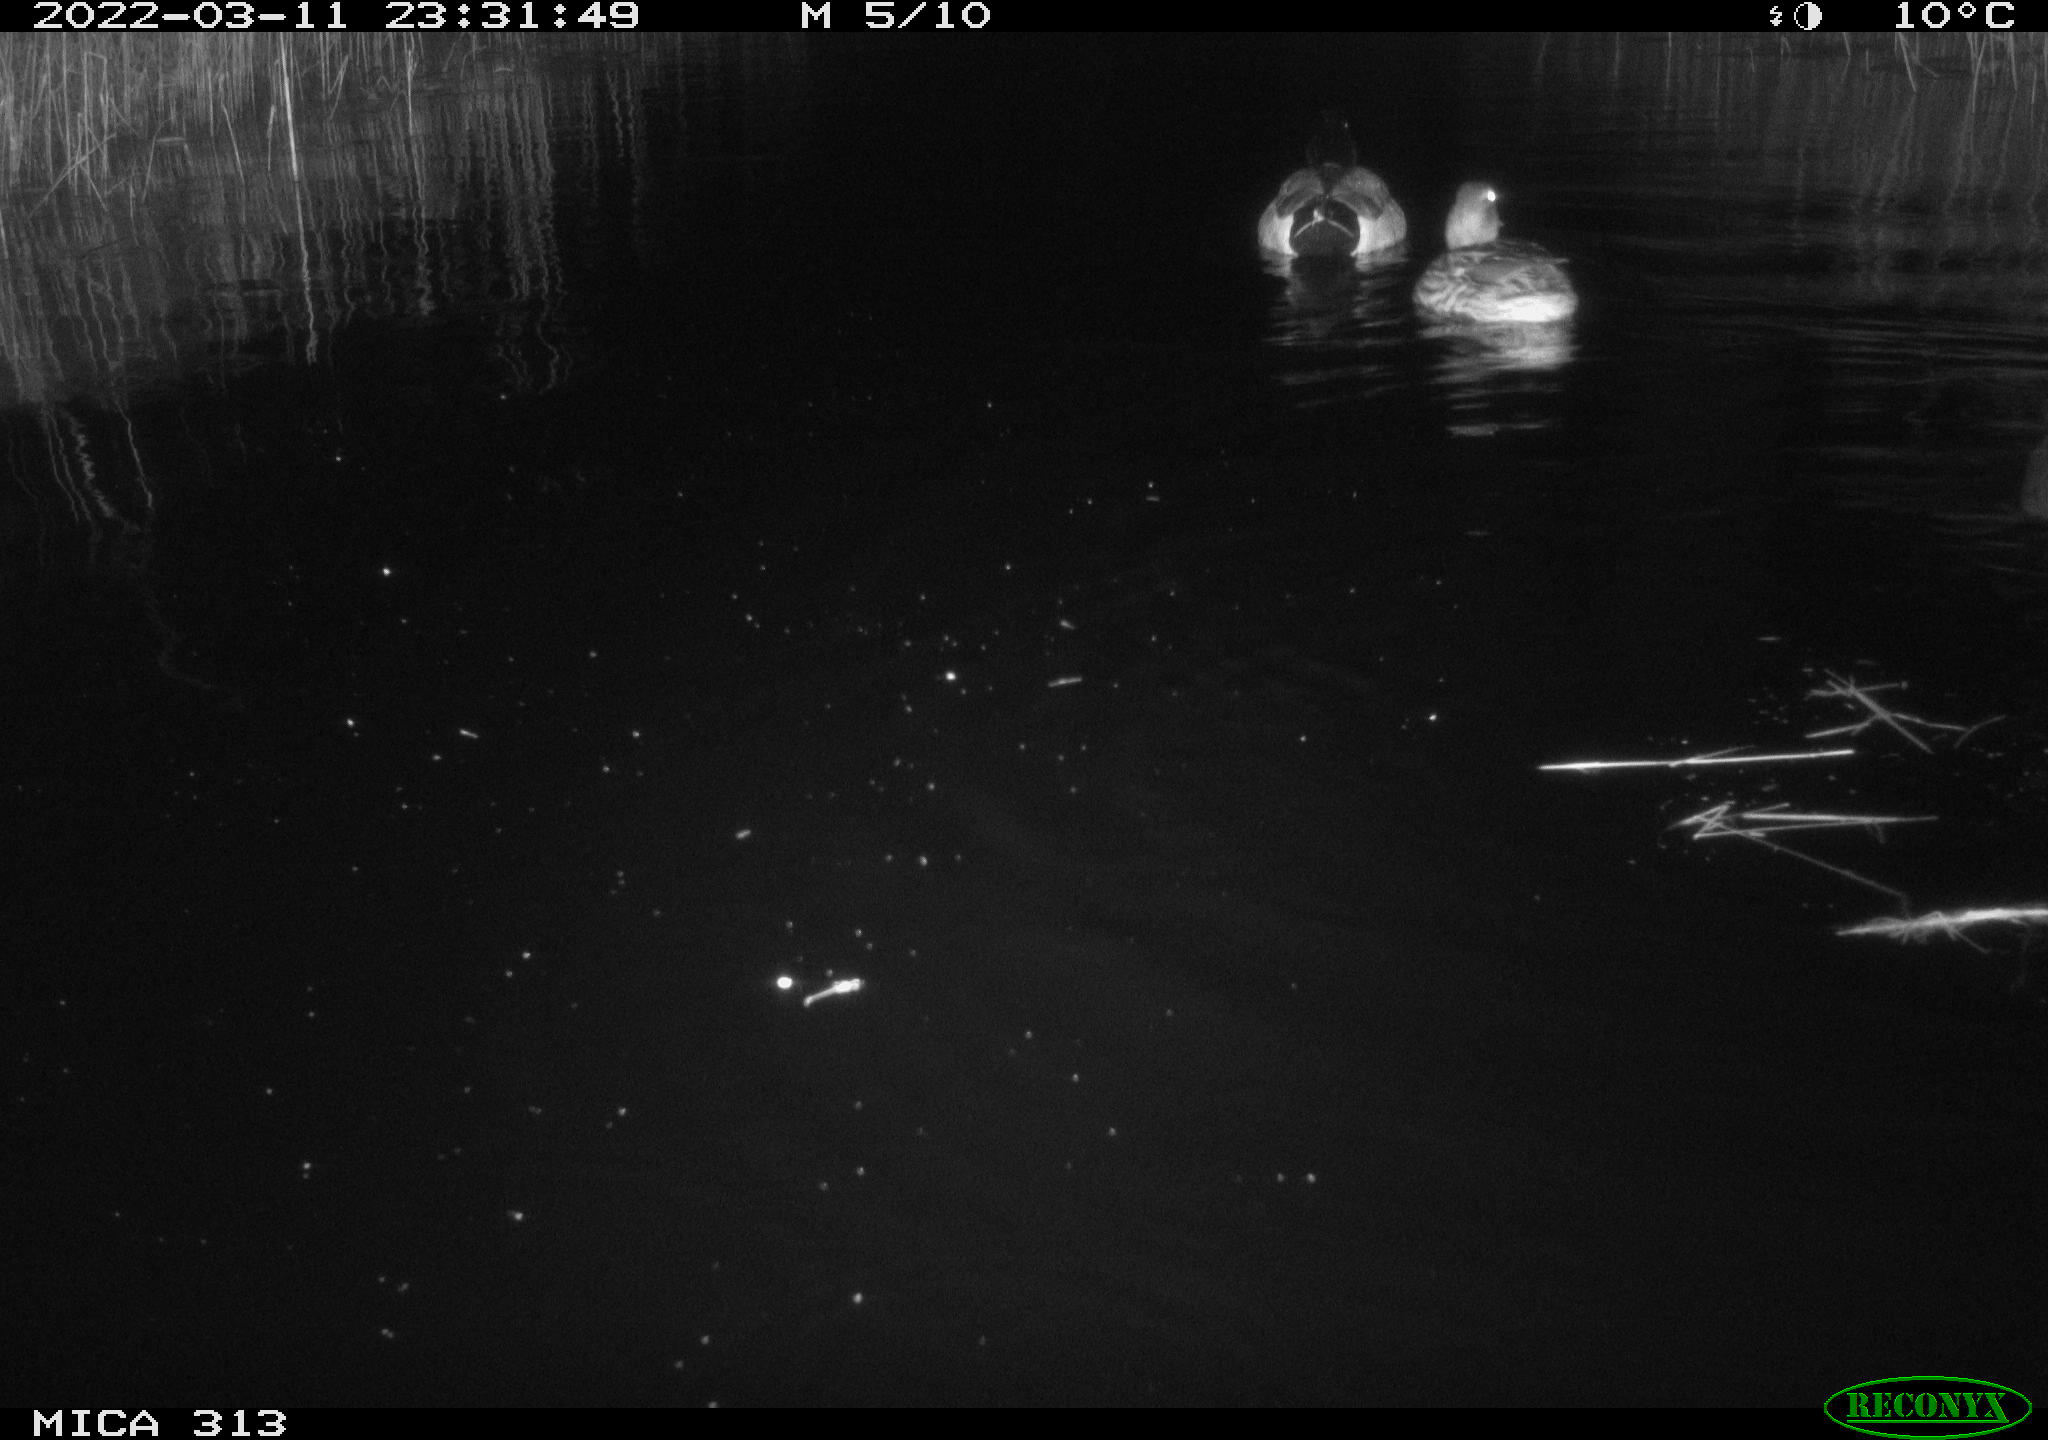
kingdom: Animalia
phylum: Chordata
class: Aves
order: Anseriformes
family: Anatidae
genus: Anas
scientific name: Anas platyrhynchos
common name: Mallard
